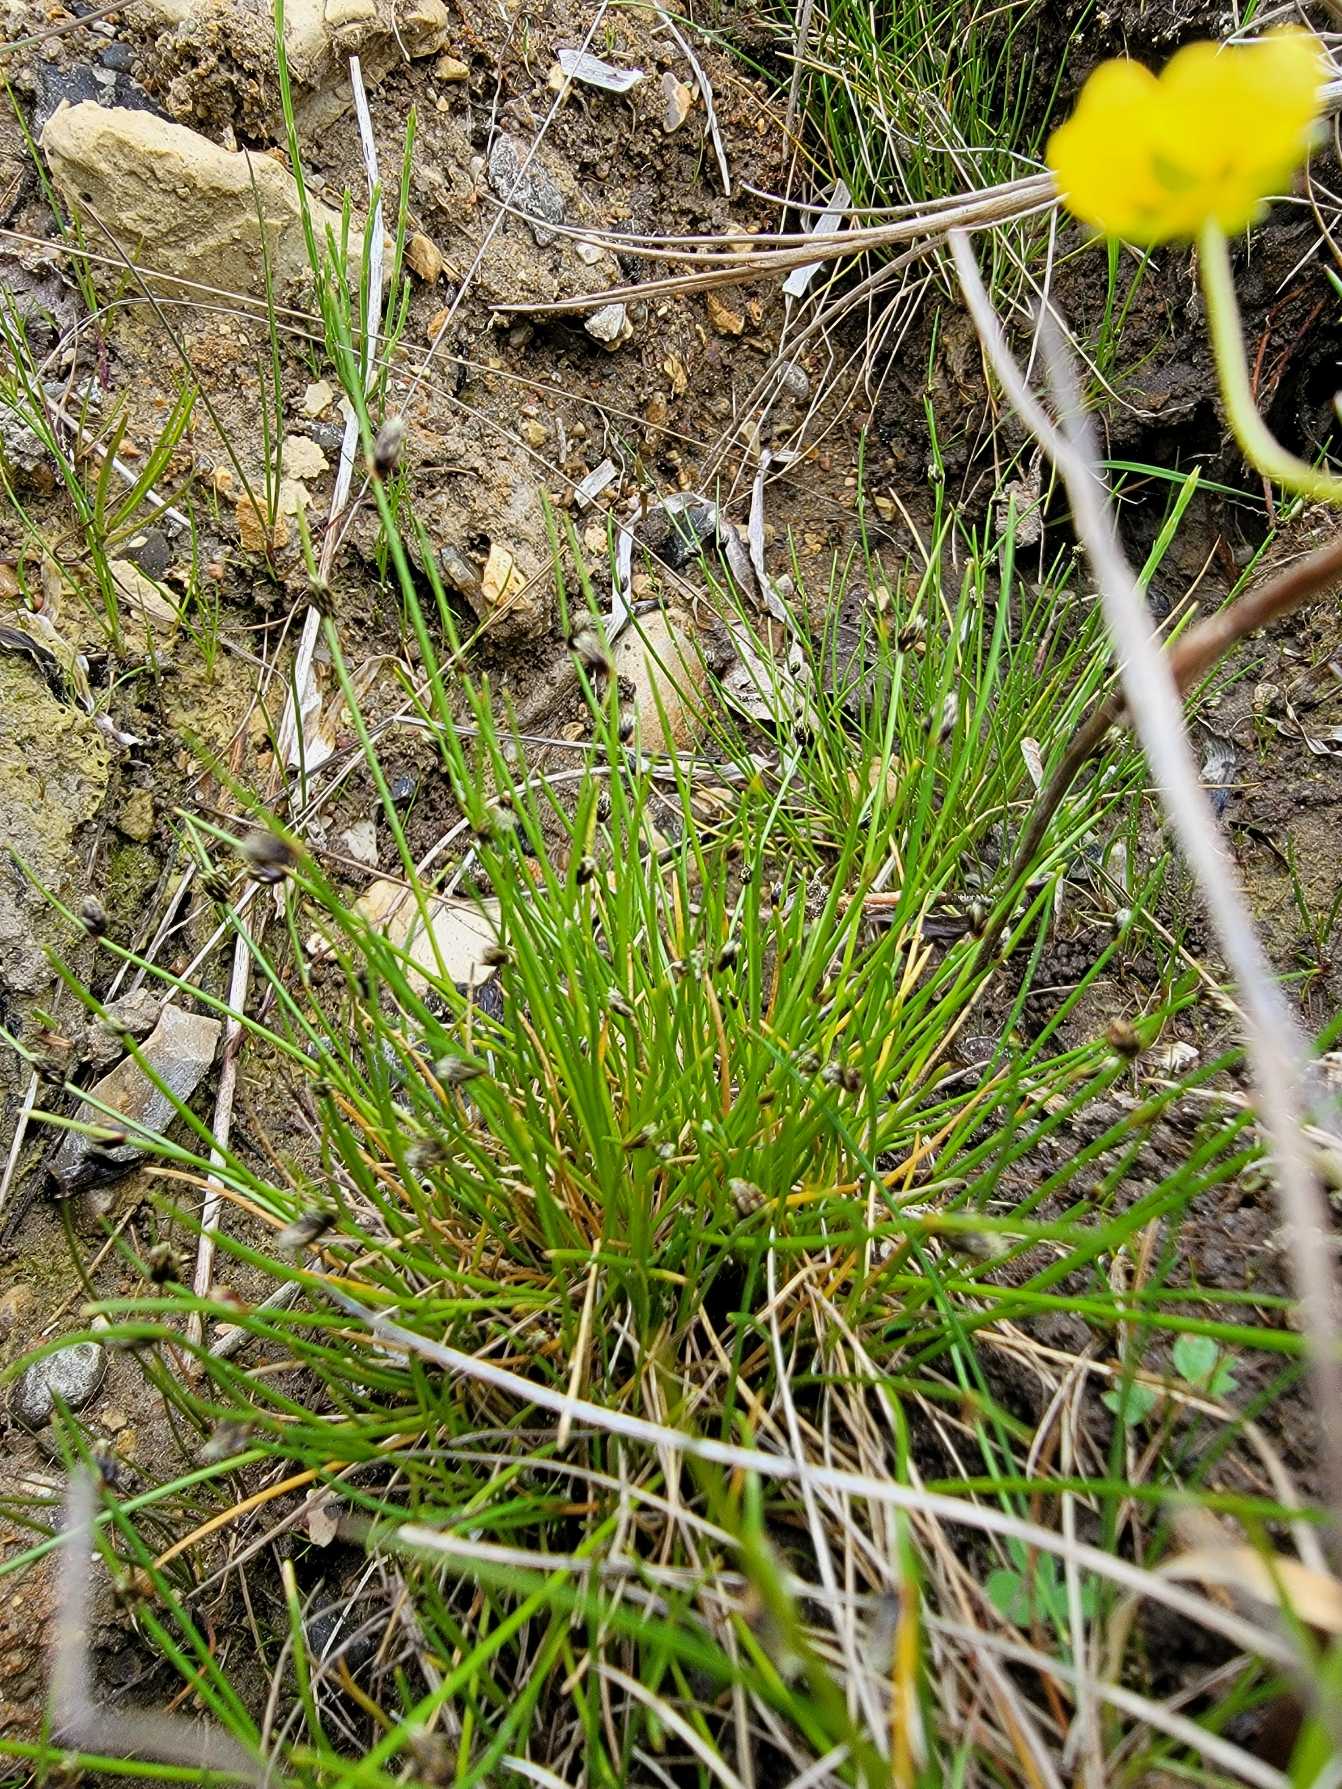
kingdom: Plantae
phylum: Tracheophyta
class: Liliopsida
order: Poales
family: Cyperaceae
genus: Isolepis
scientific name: Isolepis setacea
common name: Børste-kogleaks
